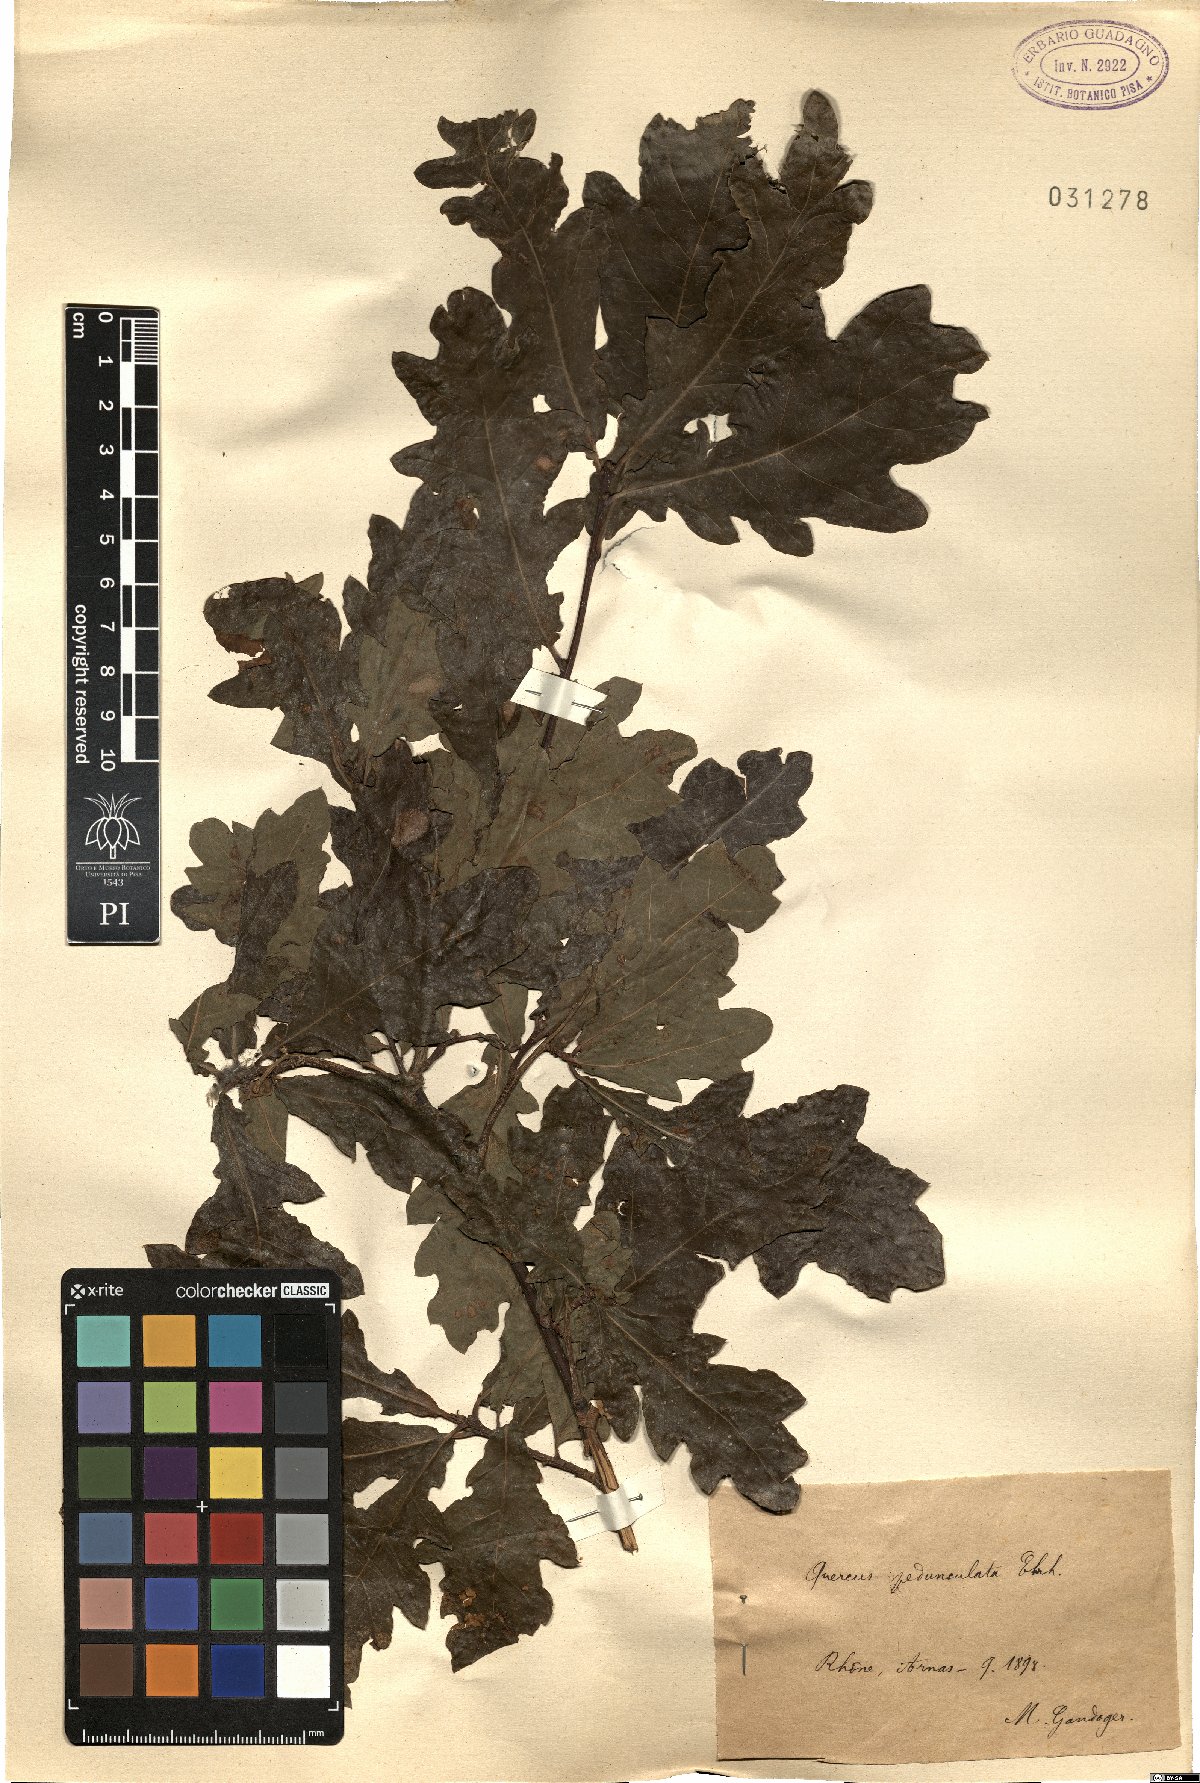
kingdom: Plantae
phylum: Tracheophyta
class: Magnoliopsida
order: Fagales
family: Fagaceae
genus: Quercus
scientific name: Quercus robur
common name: Pedunculate oak
